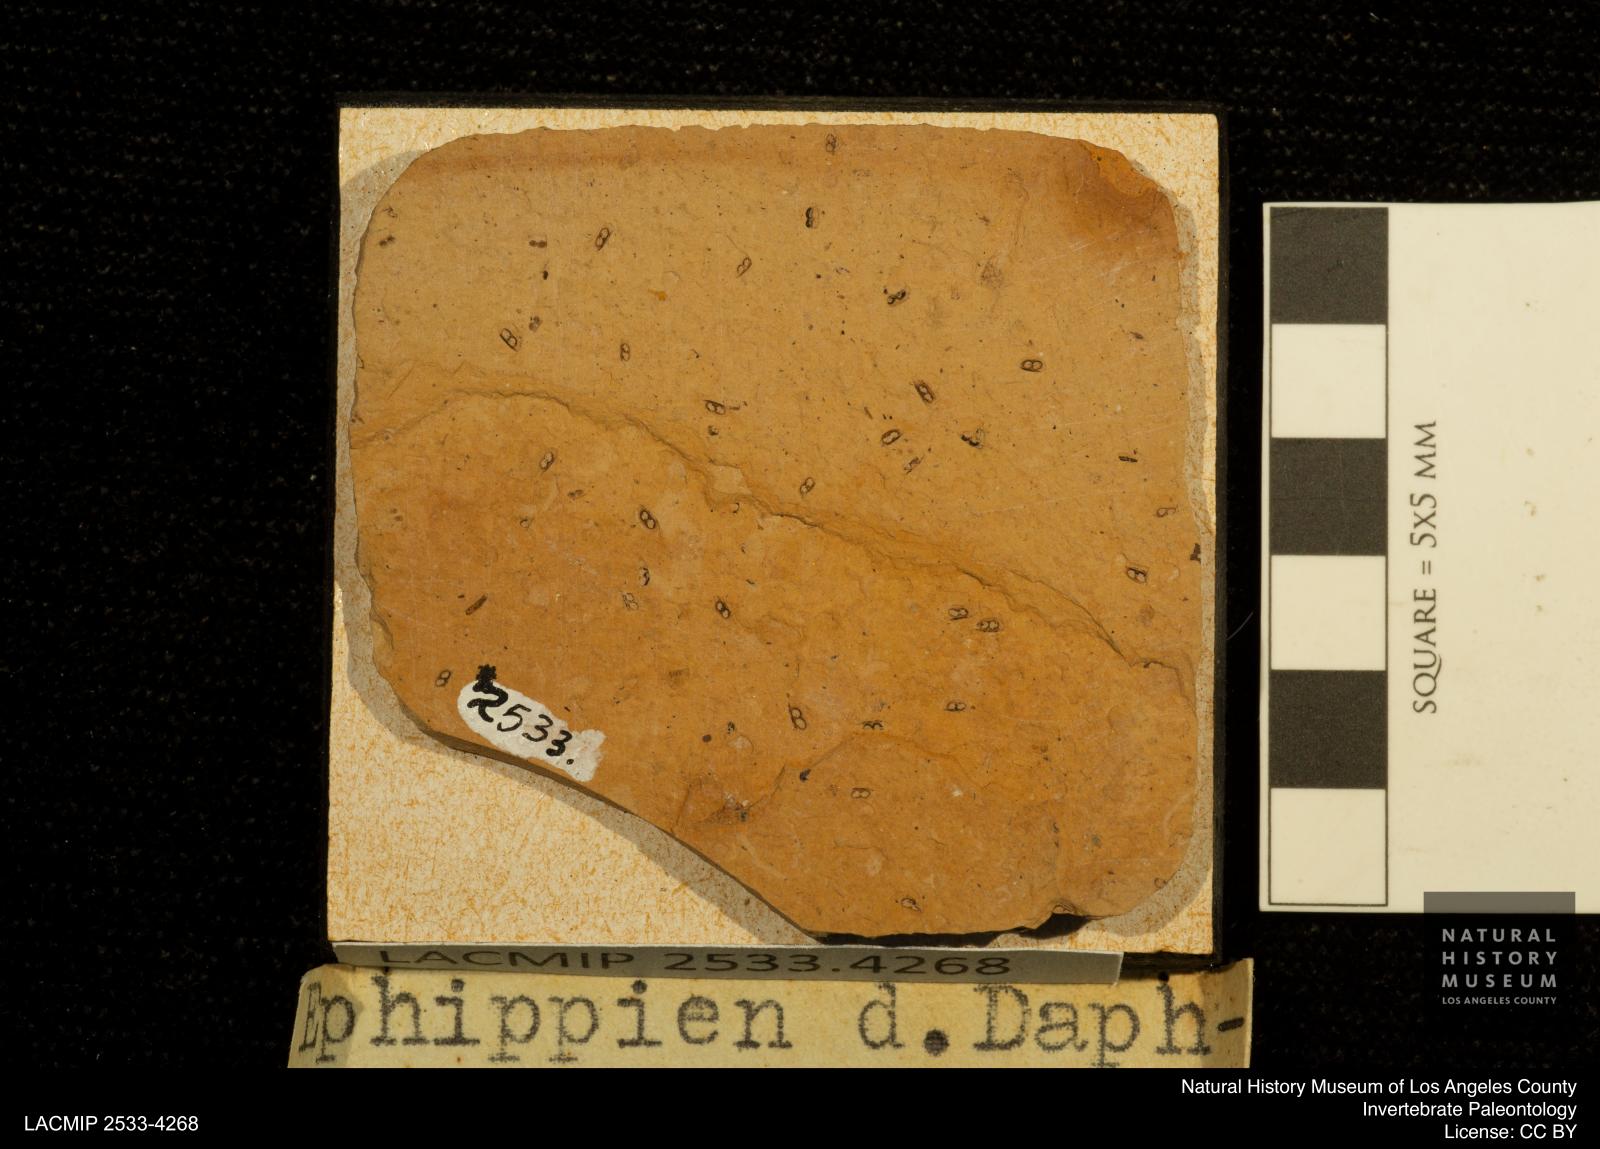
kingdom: Animalia
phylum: Arthropoda
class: Branchiopoda
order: Diplostraca
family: Daphniidae
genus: Daphnia
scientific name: Daphnia
